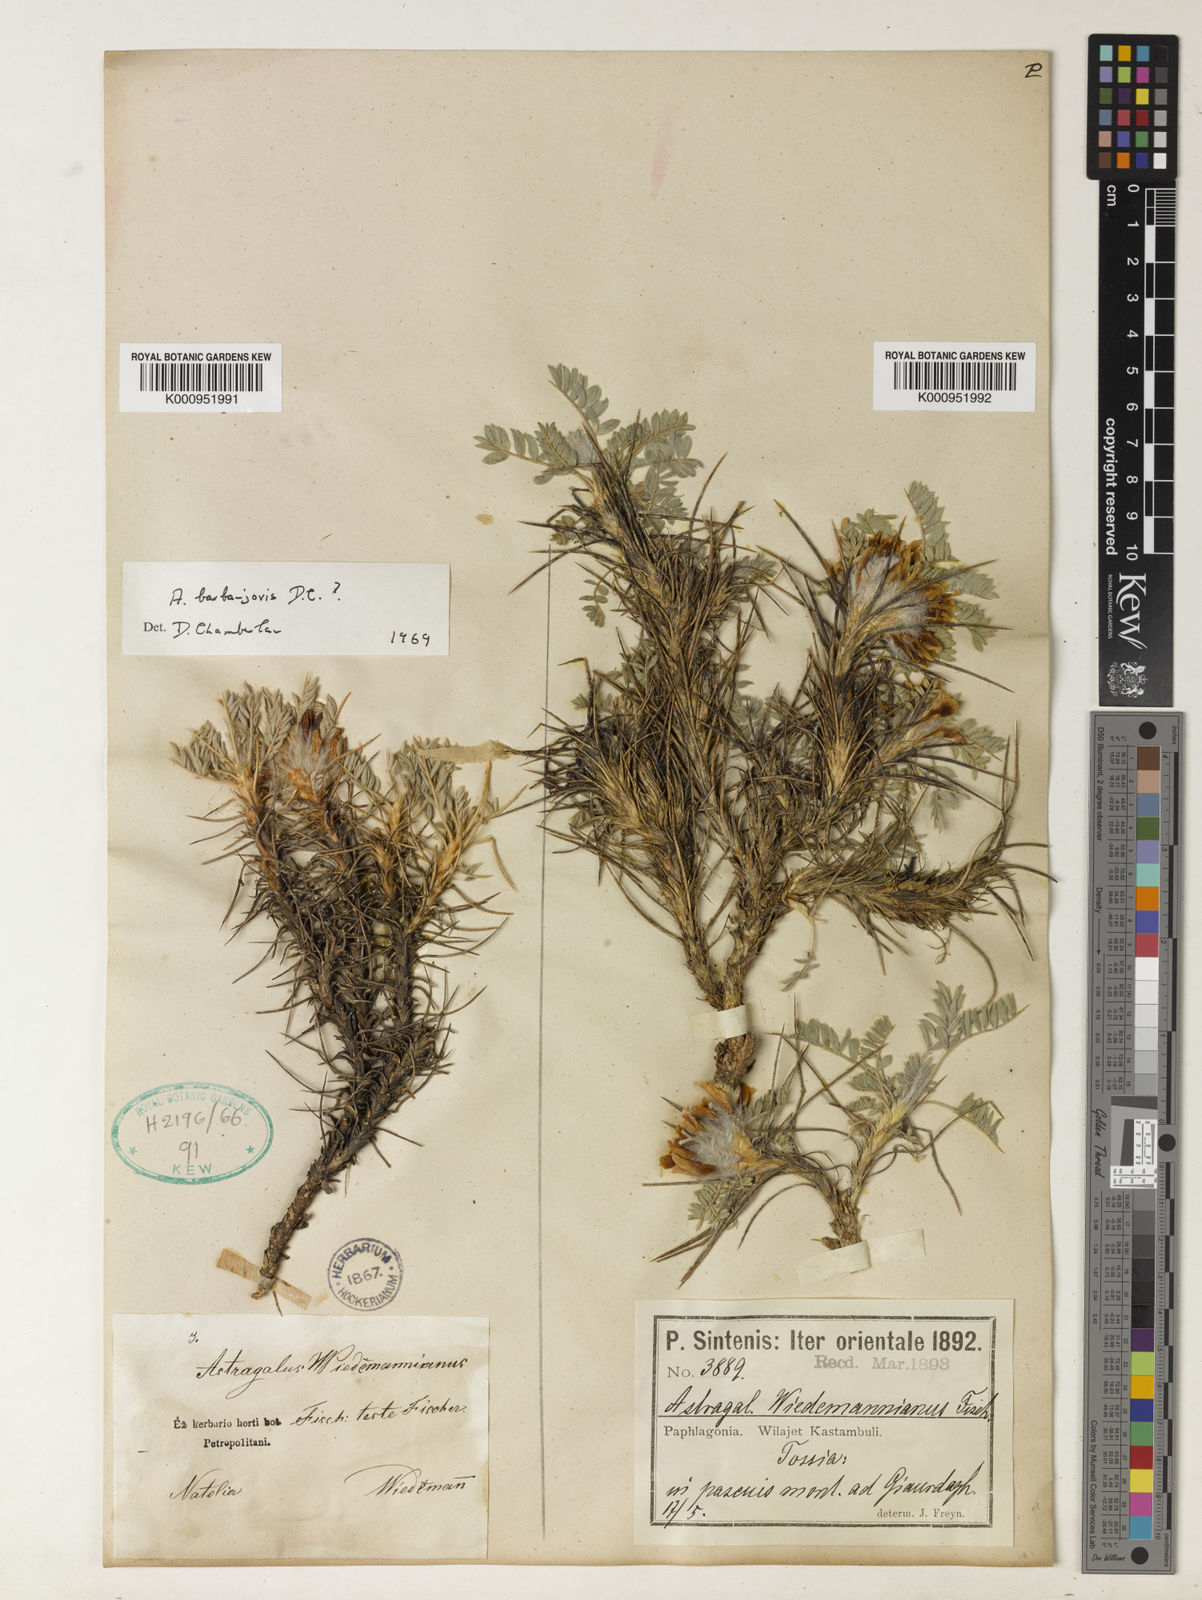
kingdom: Plantae
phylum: Tracheophyta
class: Magnoliopsida
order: Fabales
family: Fabaceae
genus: Astragalus
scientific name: Astragalus condensatus
